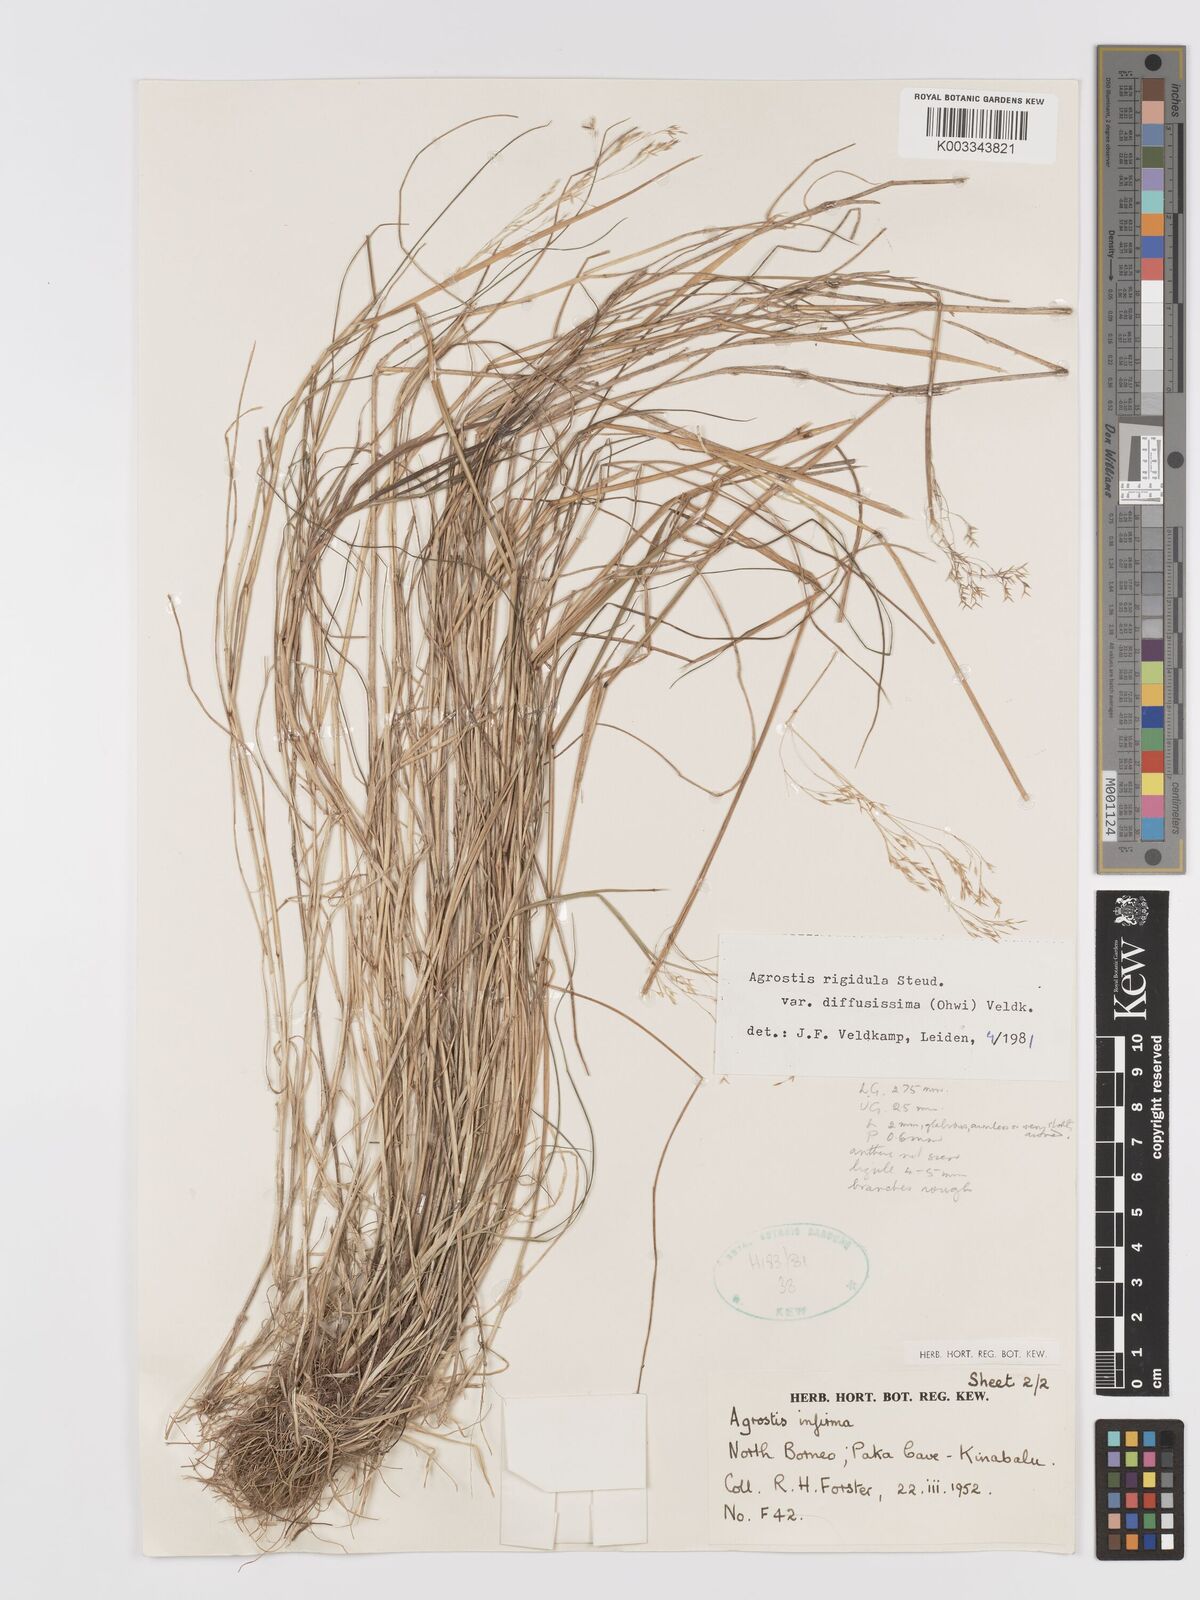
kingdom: Plantae
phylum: Tracheophyta
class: Liliopsida
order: Poales
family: Poaceae
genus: Agrostis
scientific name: Agrostis infirma
